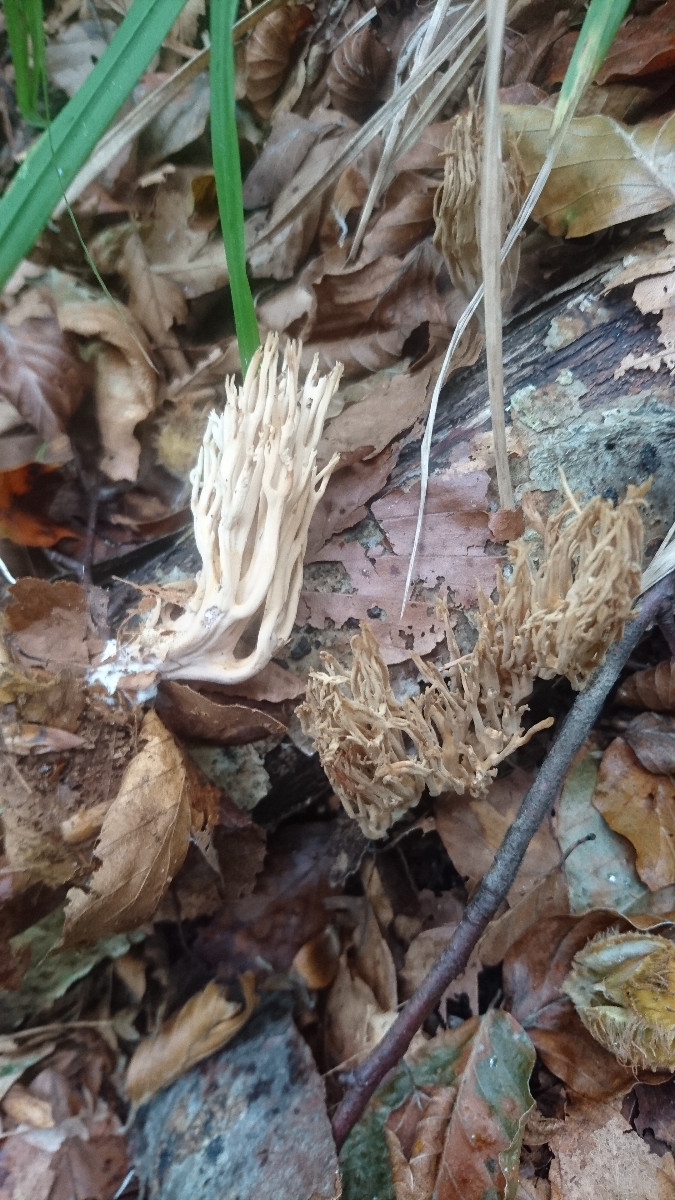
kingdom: Fungi
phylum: Basidiomycota
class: Agaricomycetes
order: Gomphales
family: Gomphaceae
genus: Ramaria
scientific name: Ramaria stricta
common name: rank koralsvamp
